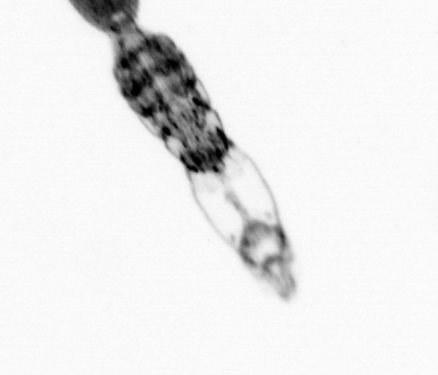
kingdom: Animalia
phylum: Arthropoda
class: Copepoda
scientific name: Copepoda
